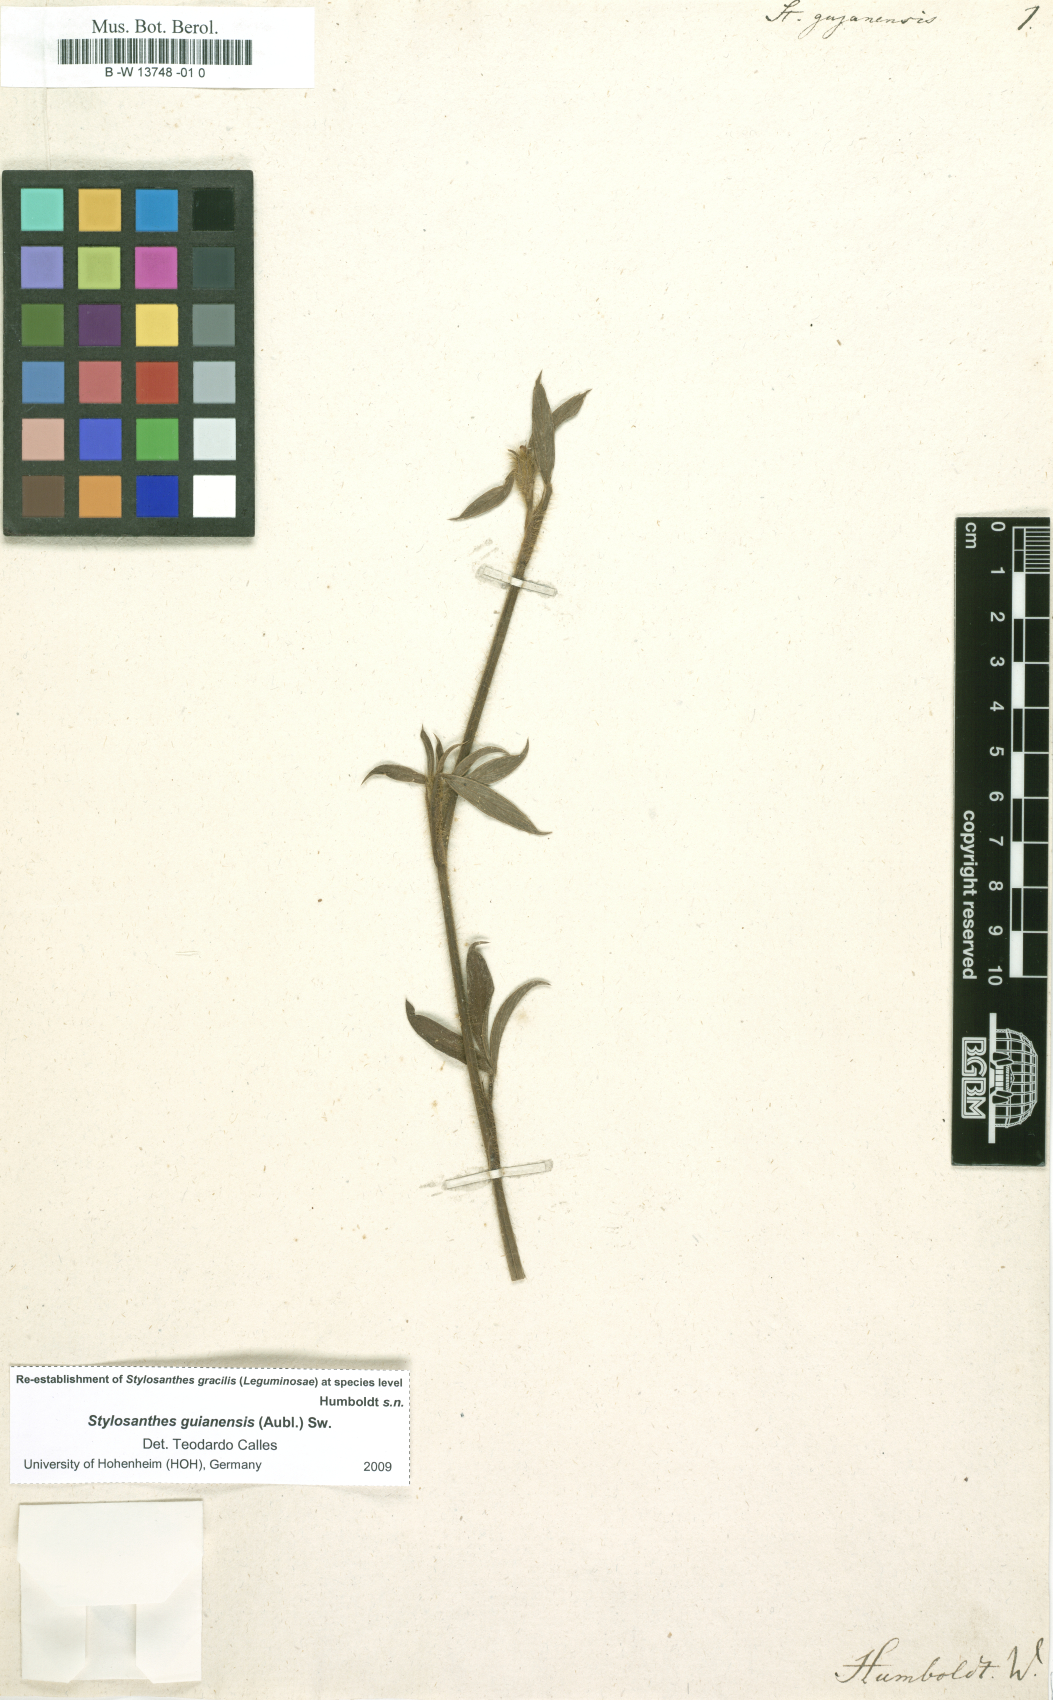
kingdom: Plantae
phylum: Tracheophyta
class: Magnoliopsida
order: Fabales
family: Fabaceae
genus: Stylosanthes
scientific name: Stylosanthes guianensis
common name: Pencil flower
